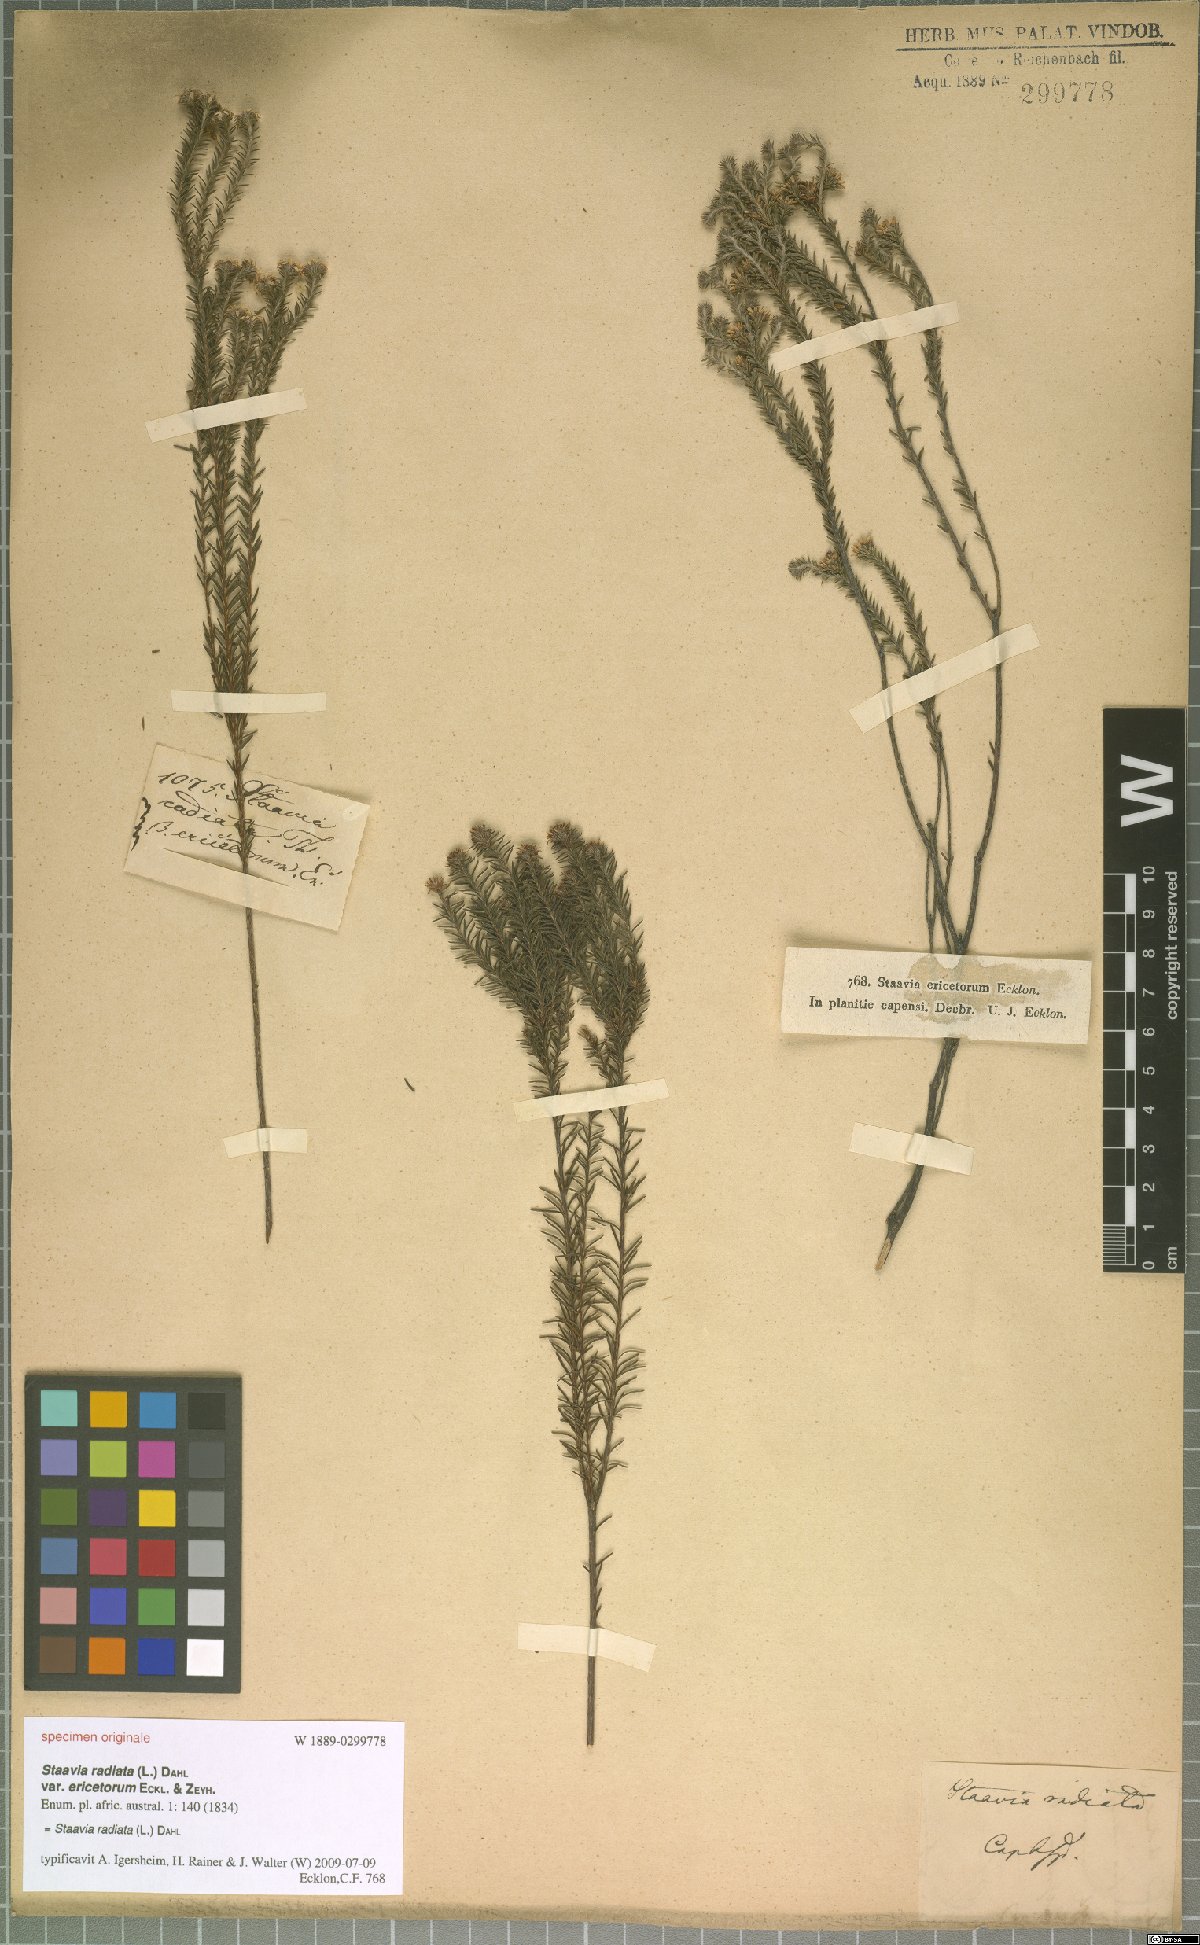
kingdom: Plantae
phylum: Tracheophyta
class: Magnoliopsida
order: Bruniales
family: Bruniaceae
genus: Staavia
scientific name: Staavia radiata
